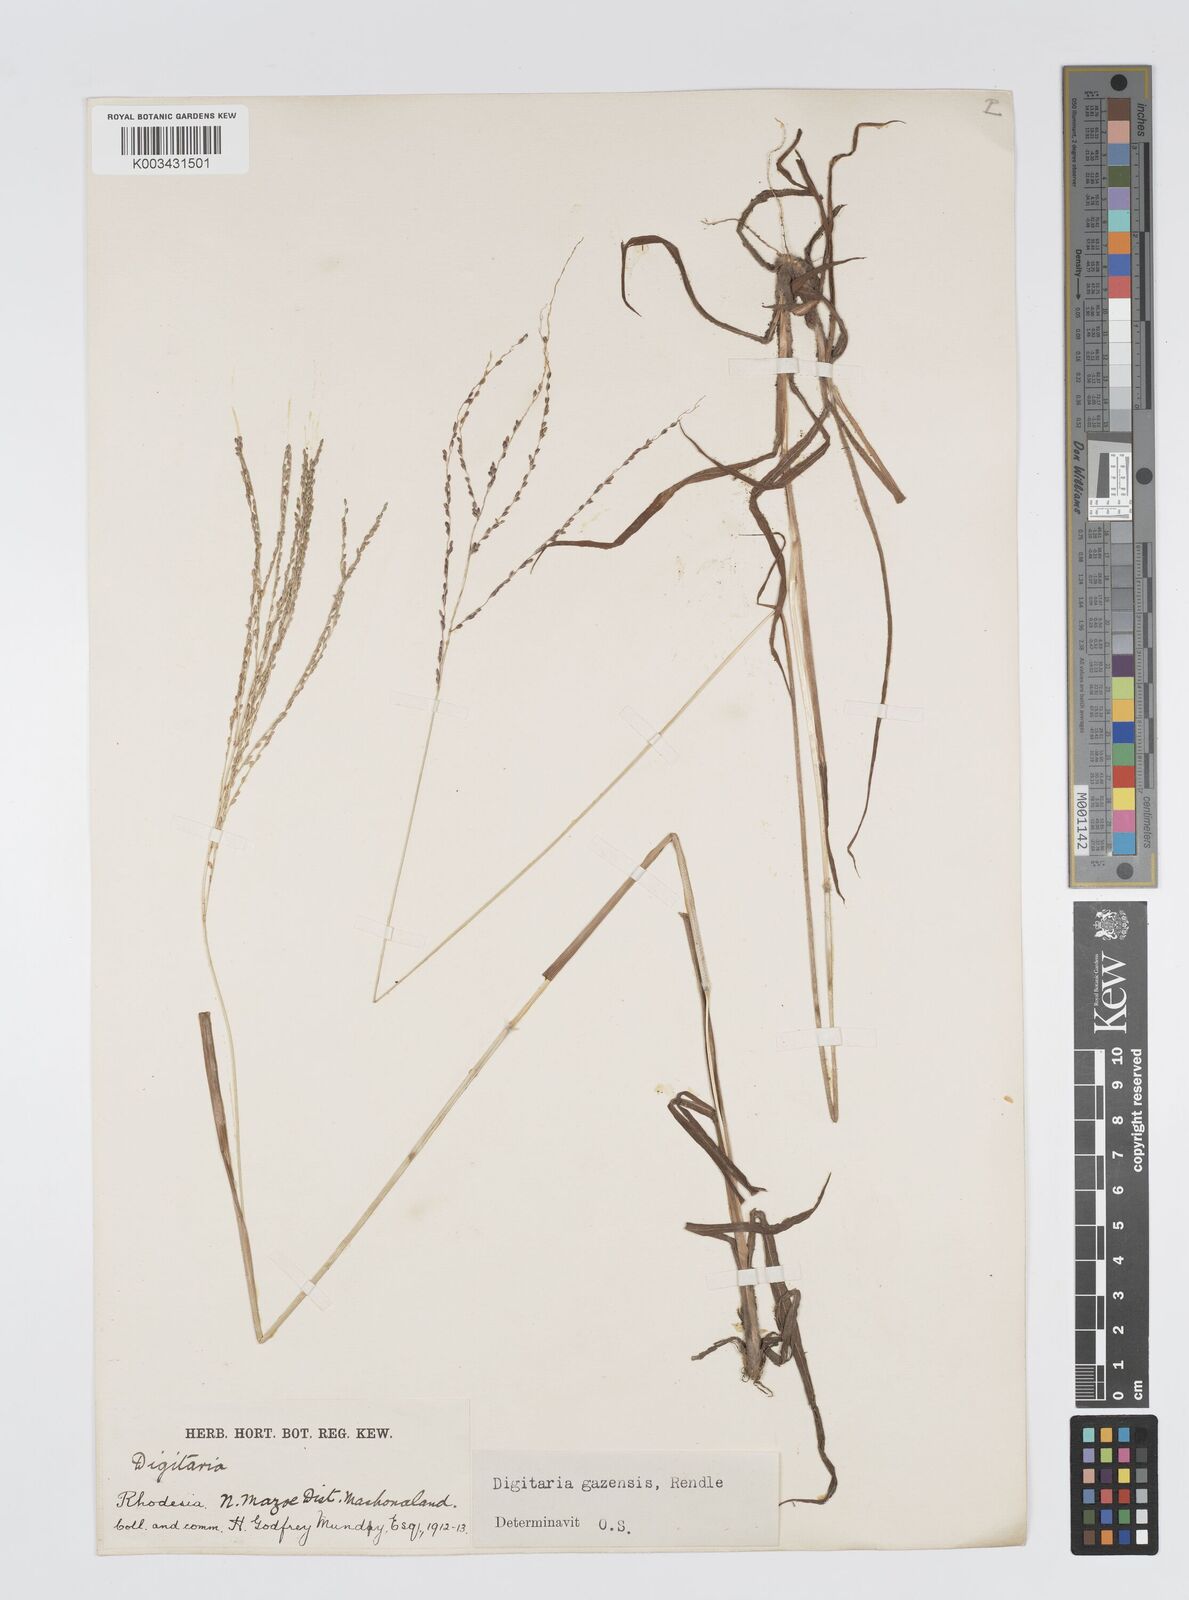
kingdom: Plantae
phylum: Tracheophyta
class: Liliopsida
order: Poales
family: Poaceae
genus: Digitaria
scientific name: Digitaria gazensis
